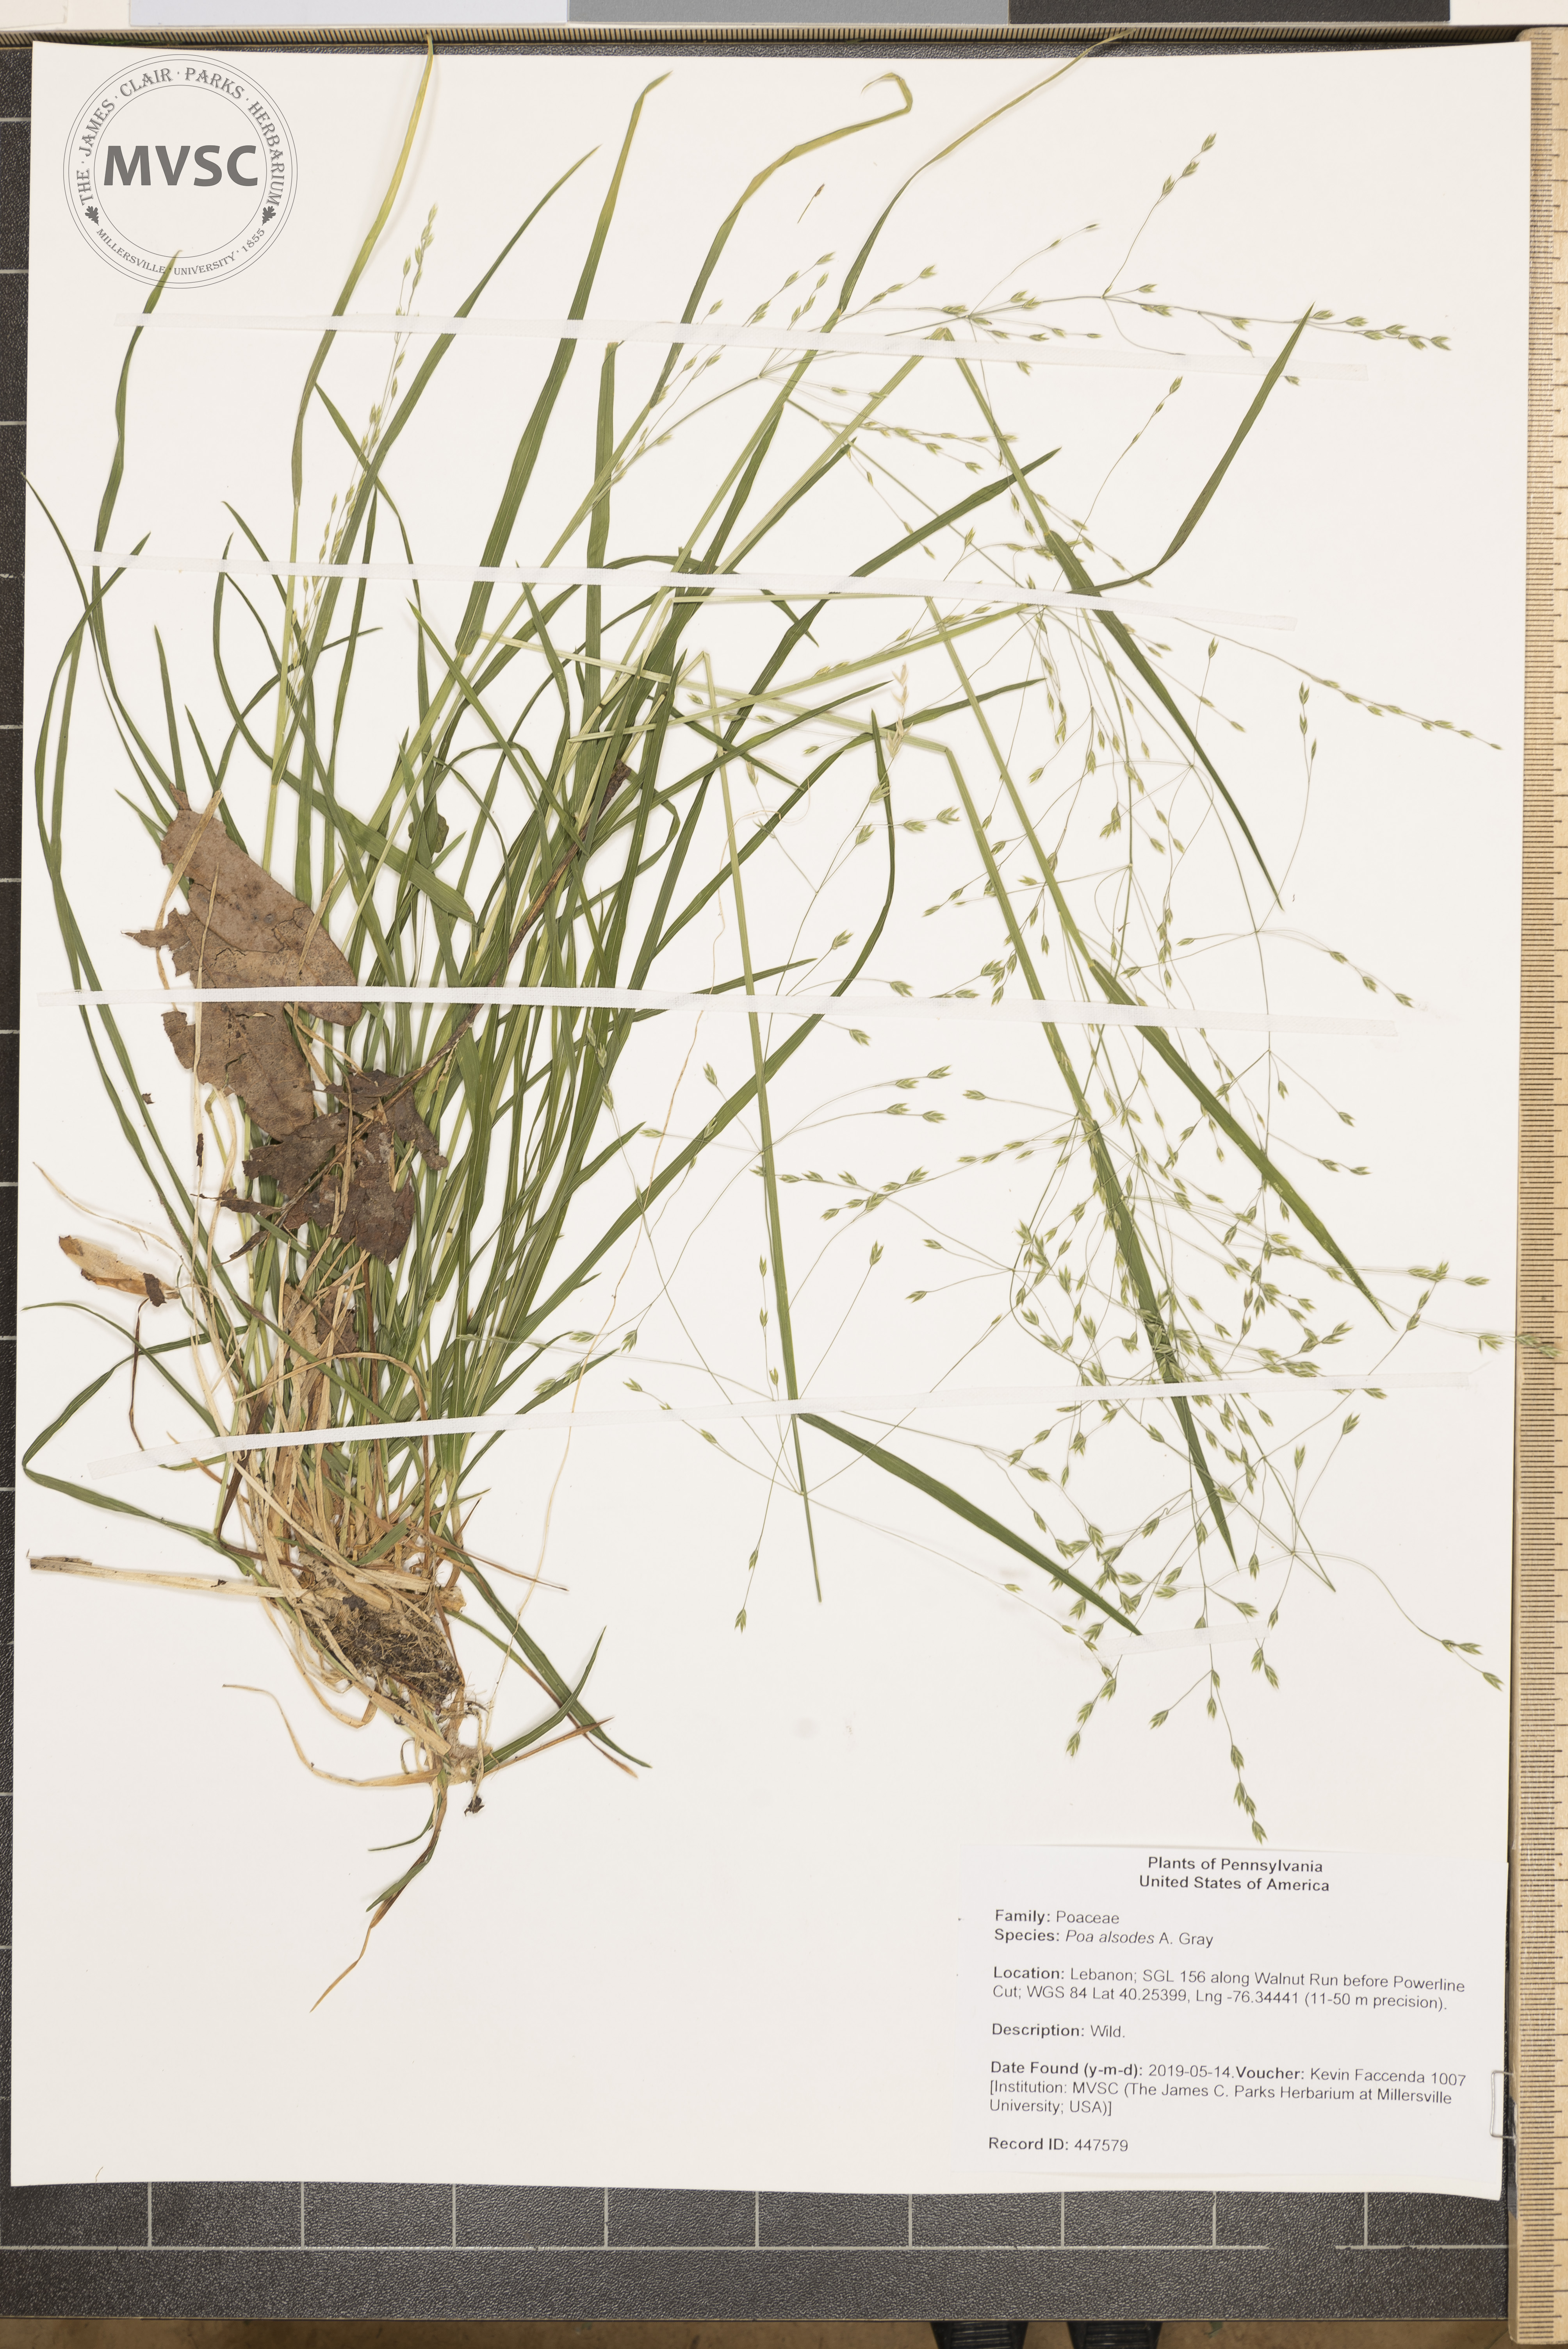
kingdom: Plantae
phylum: Tracheophyta
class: Liliopsida
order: Poales
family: Poaceae
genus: Poa
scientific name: Poa alsodes
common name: Grove bluegrass
